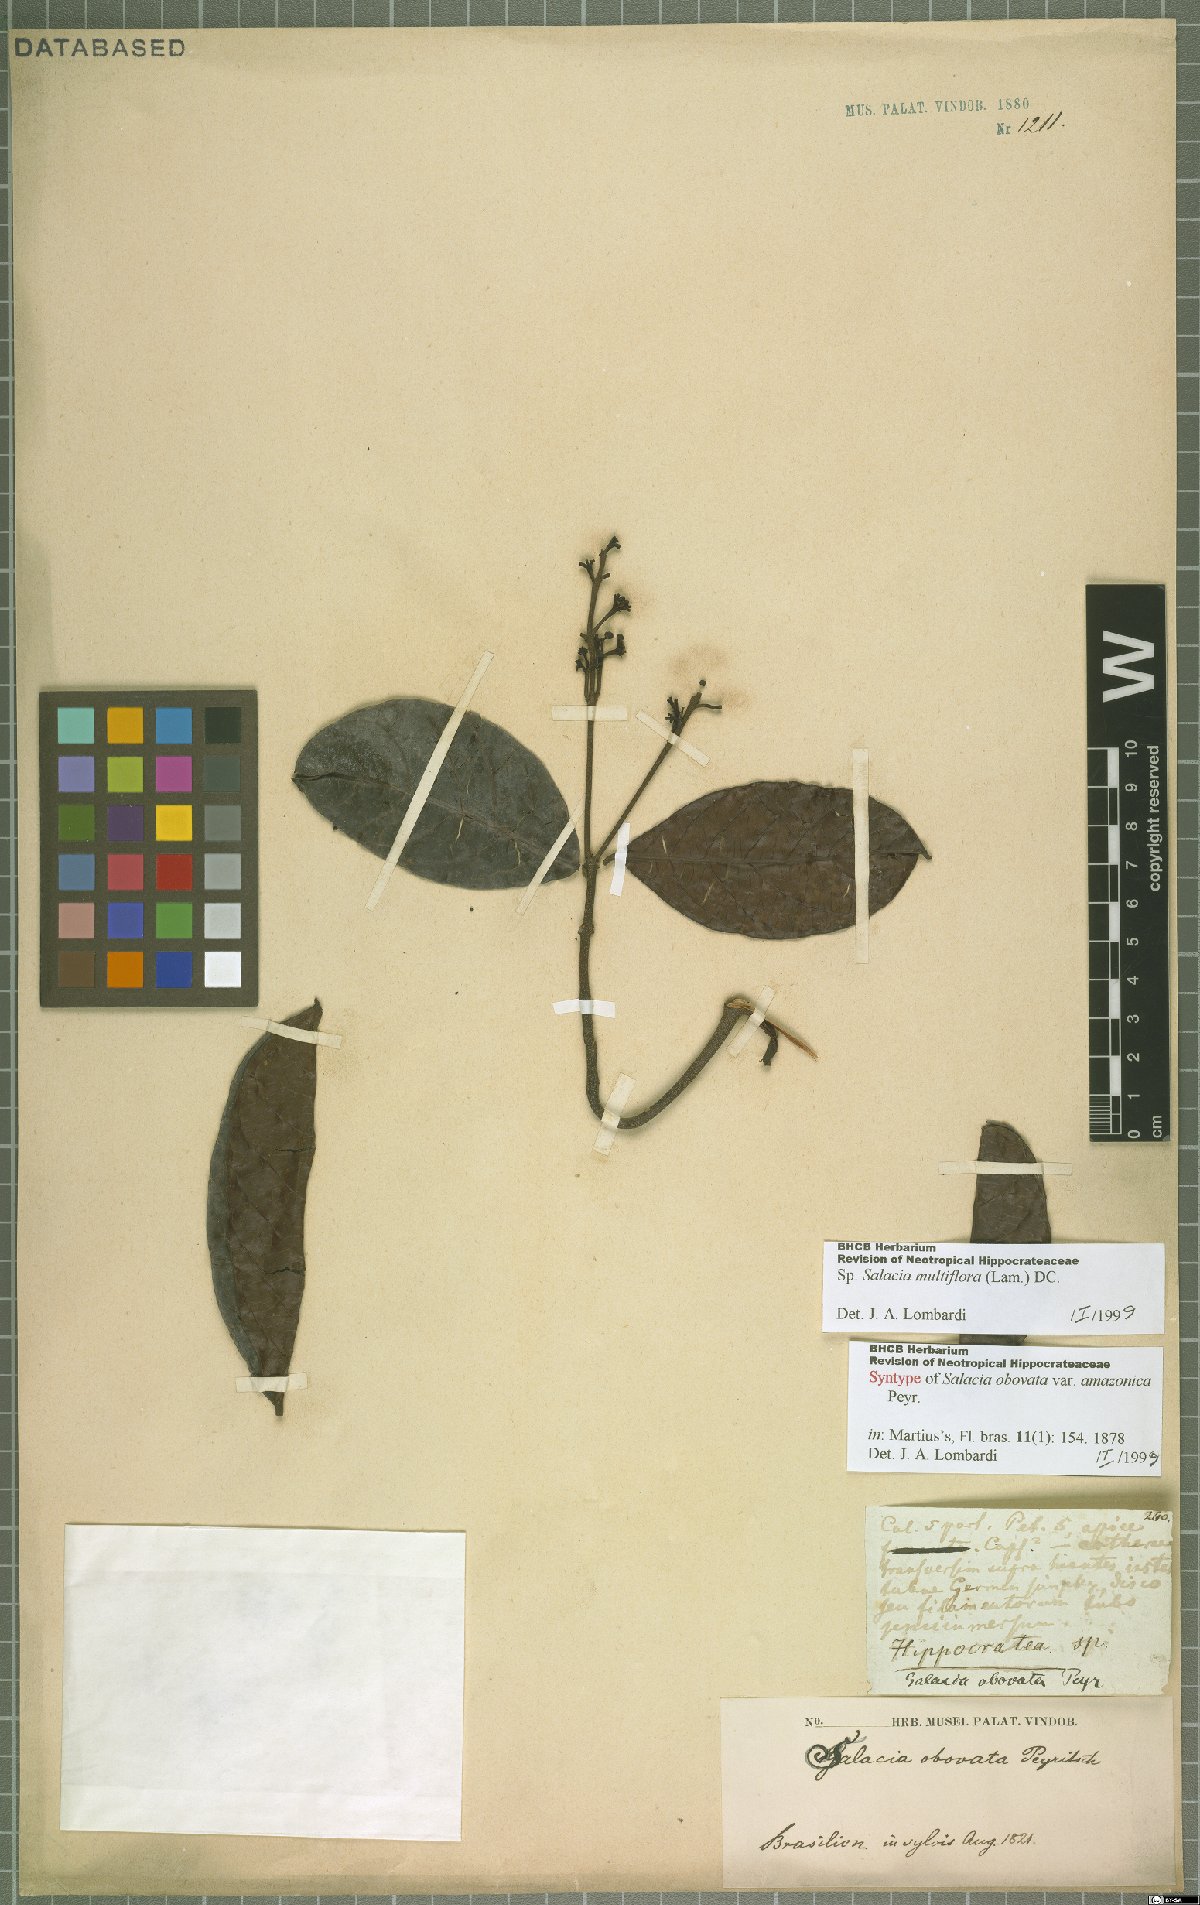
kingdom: Plantae
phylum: Tracheophyta
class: Magnoliopsida
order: Celastrales
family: Celastraceae
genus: Salacia
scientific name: Salacia multiflora
